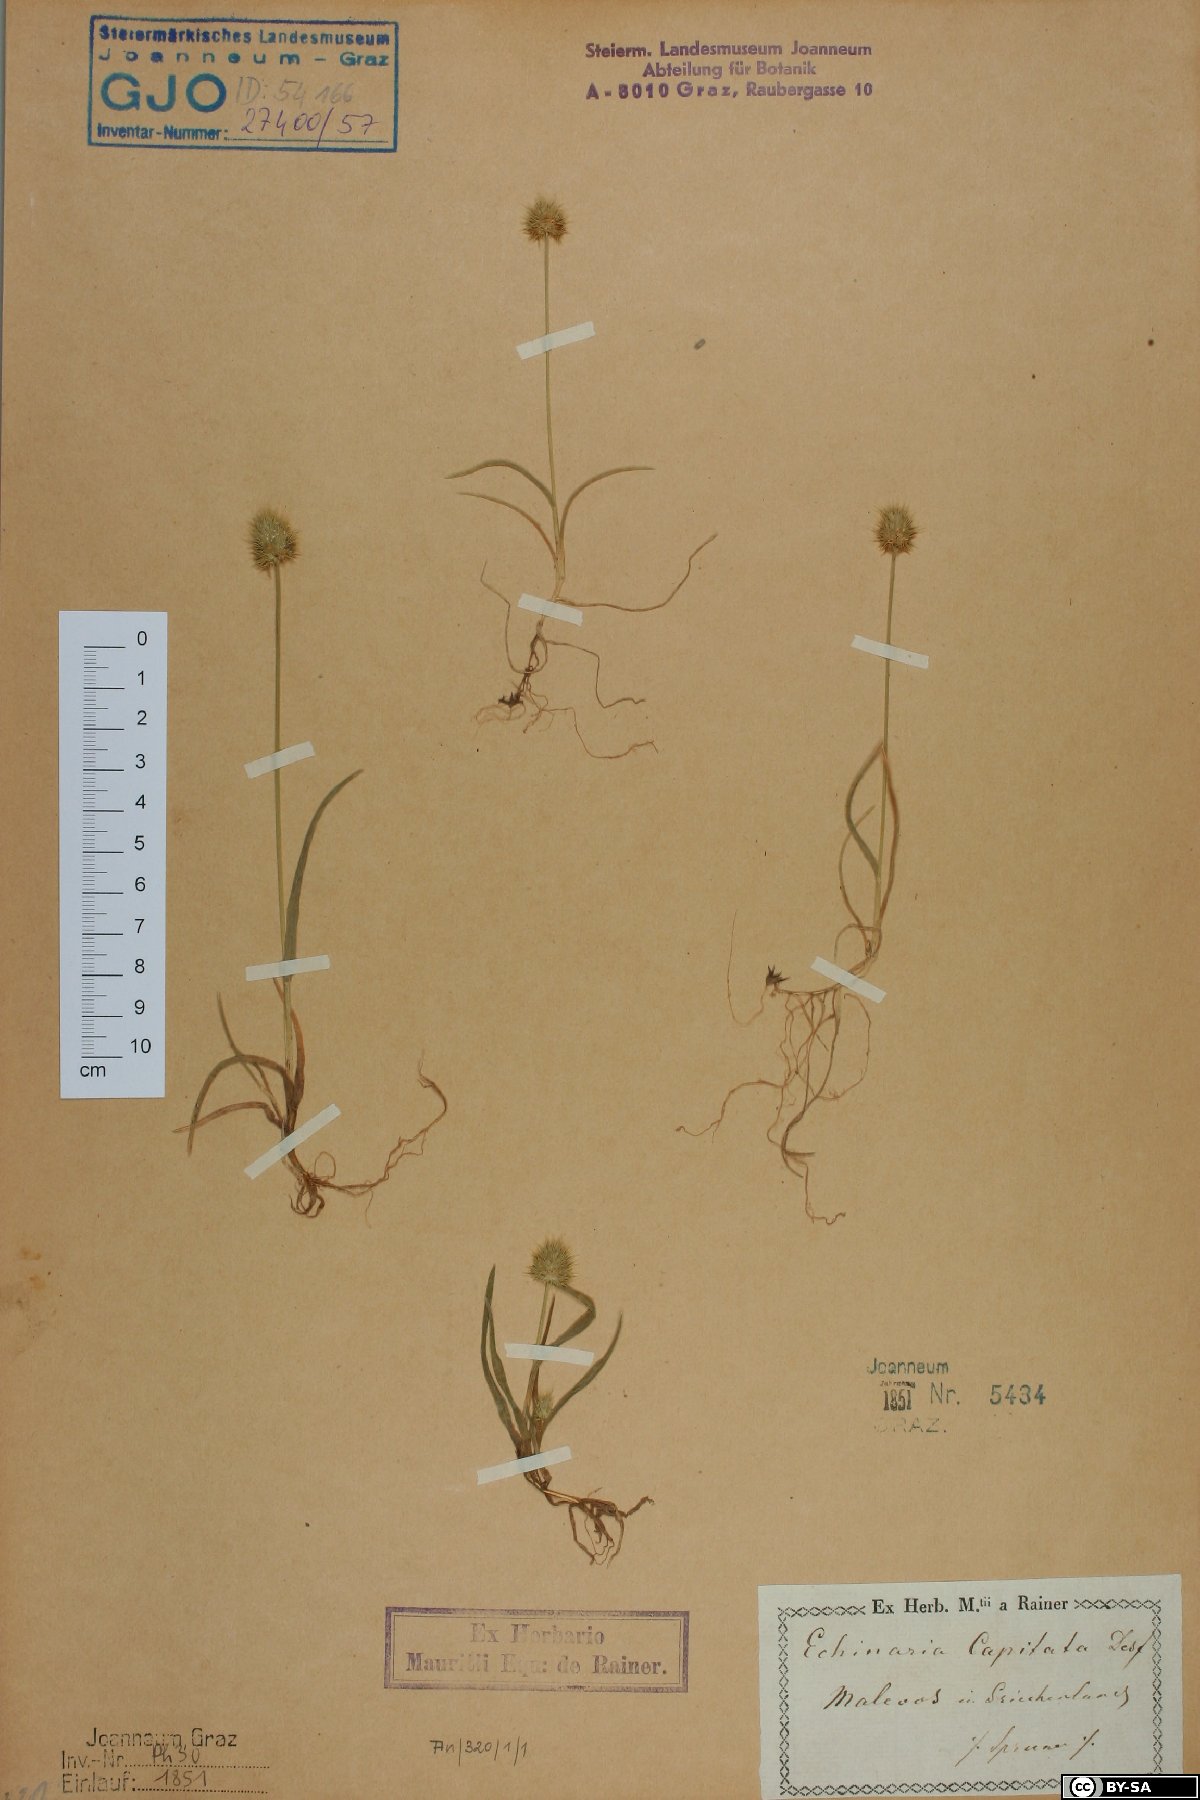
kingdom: Plantae
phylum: Tracheophyta
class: Liliopsida
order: Poales
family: Poaceae
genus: Echinaria
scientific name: Echinaria capitata
